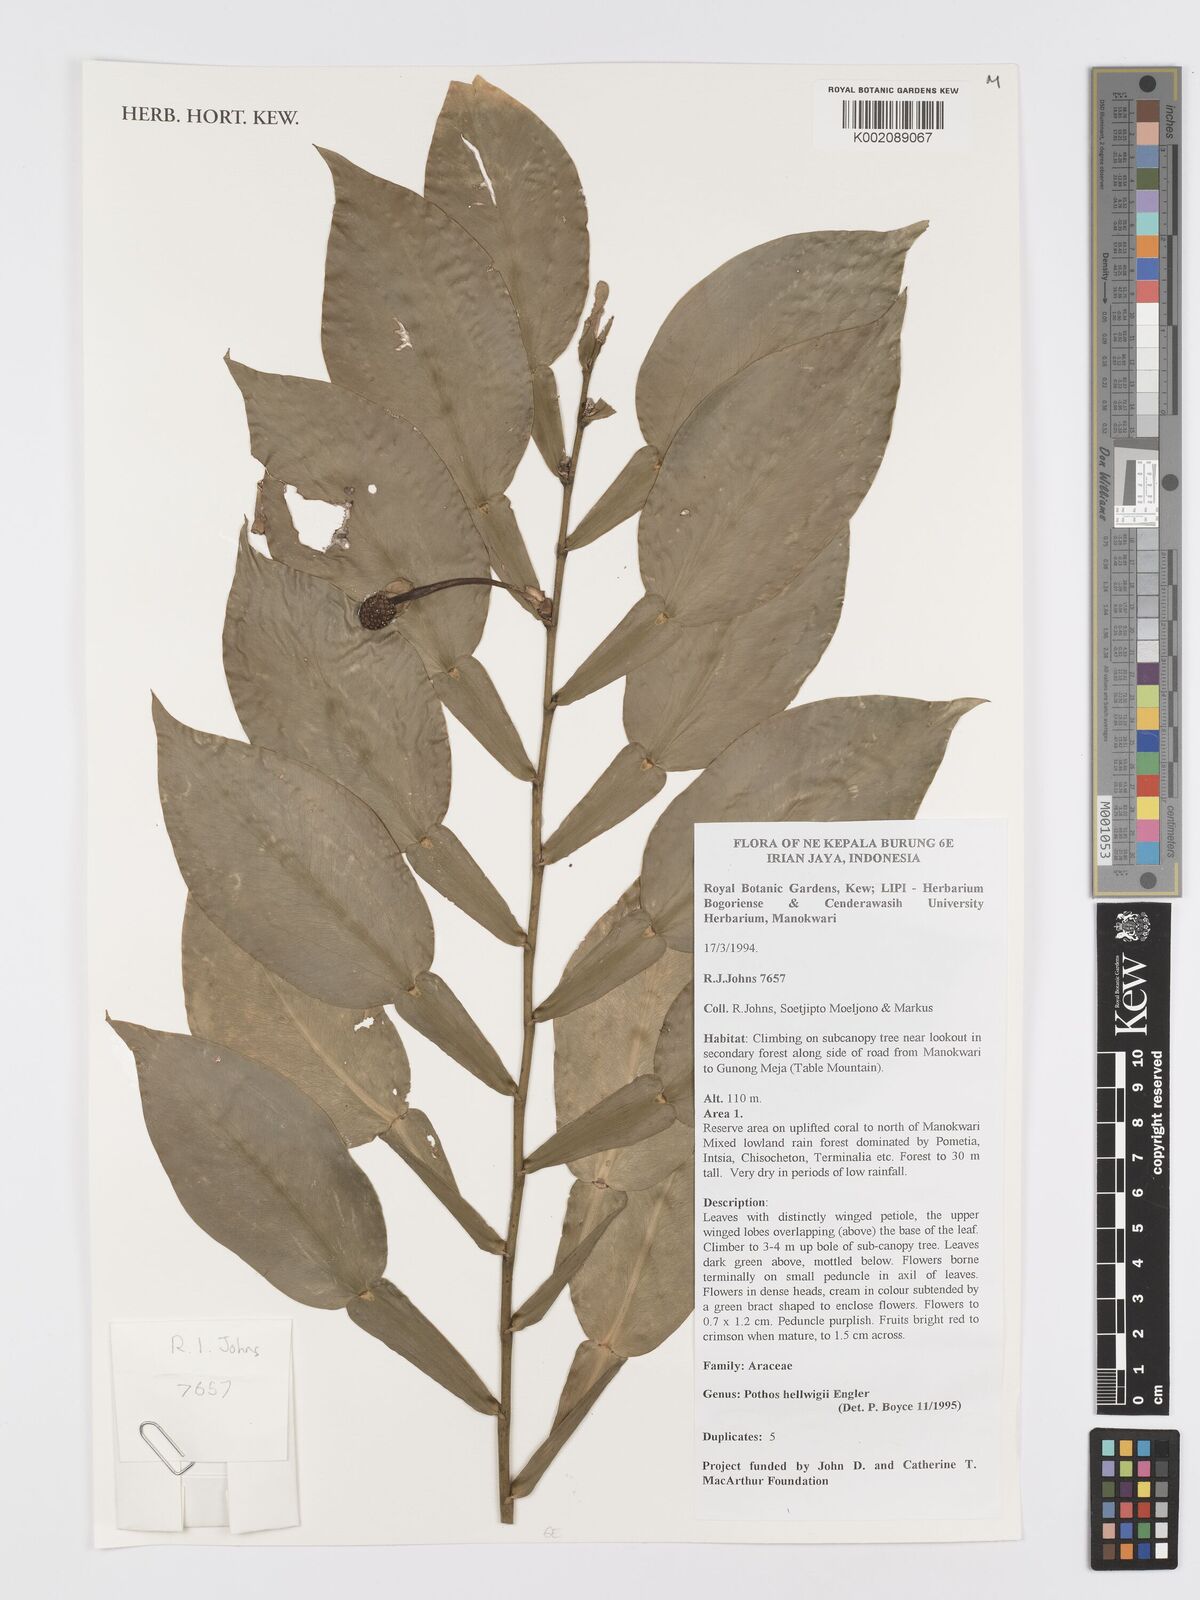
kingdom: Plantae
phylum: Tracheophyta
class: Liliopsida
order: Alismatales
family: Araceae
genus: Pothos
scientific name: Pothos hellwigii
